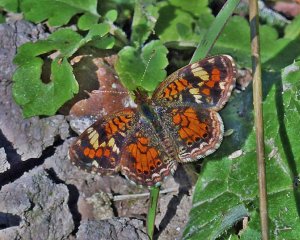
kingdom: Animalia
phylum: Arthropoda
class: Insecta
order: Lepidoptera
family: Nymphalidae
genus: Phyciodes
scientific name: Phyciodes phaon
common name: Phaon Crescent
